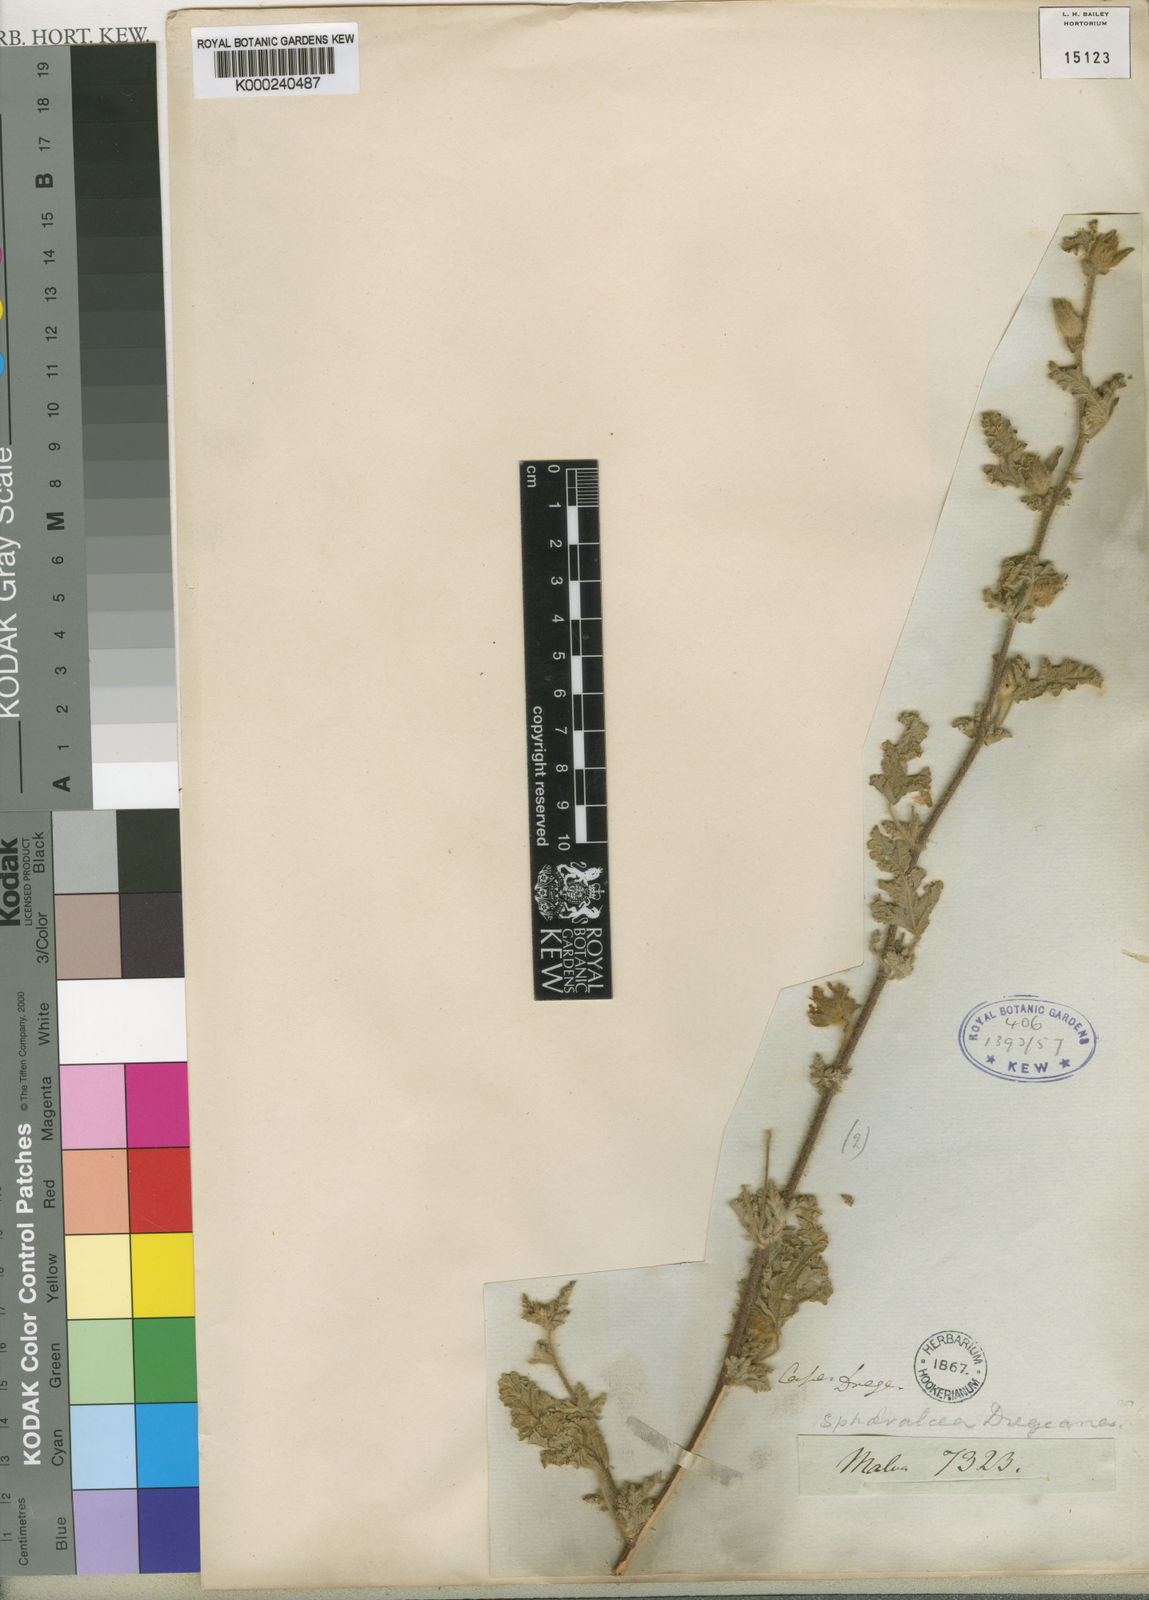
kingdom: Plantae
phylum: Tracheophyta
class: Magnoliopsida
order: Malvales
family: Malvaceae
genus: Anisodontea
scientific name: Anisodontea anomala
